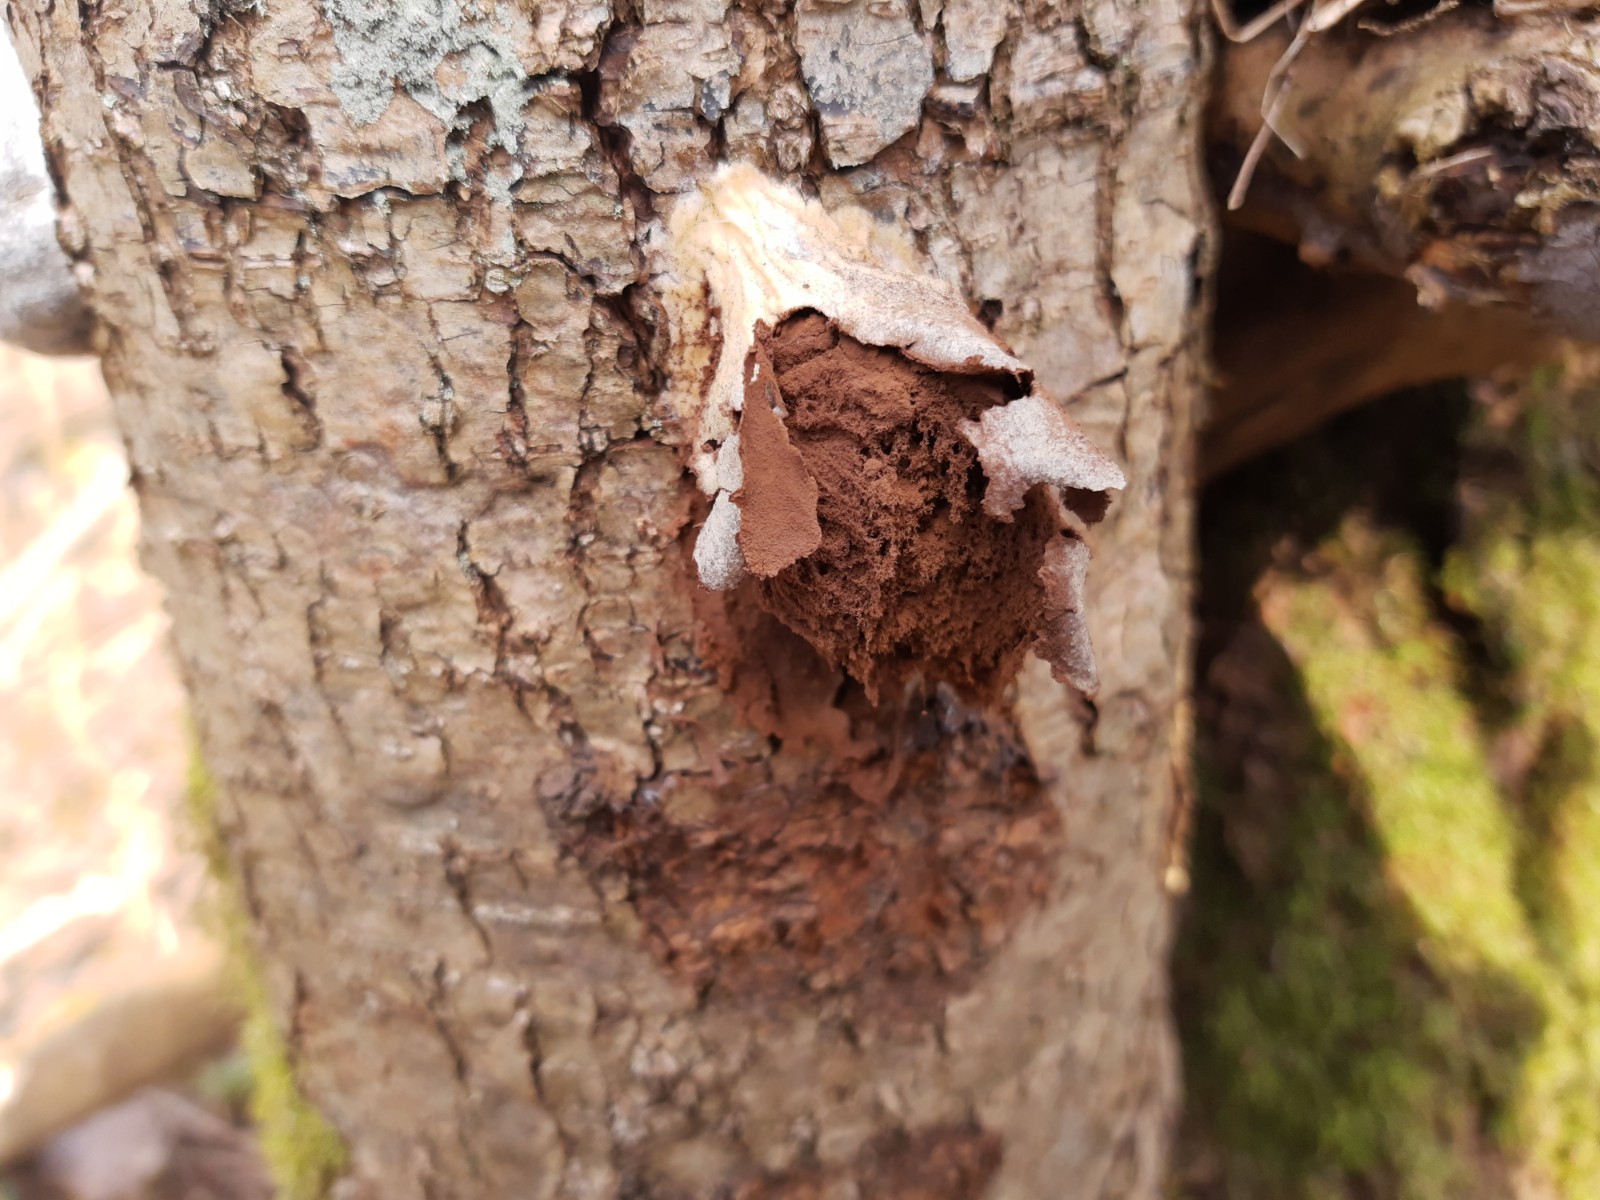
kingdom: Protozoa
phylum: Mycetozoa
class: Myxomycetes
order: Cribrariales
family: Tubiferaceae
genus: Reticularia
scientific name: Reticularia lycoperdon
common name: skinnende støvpude
